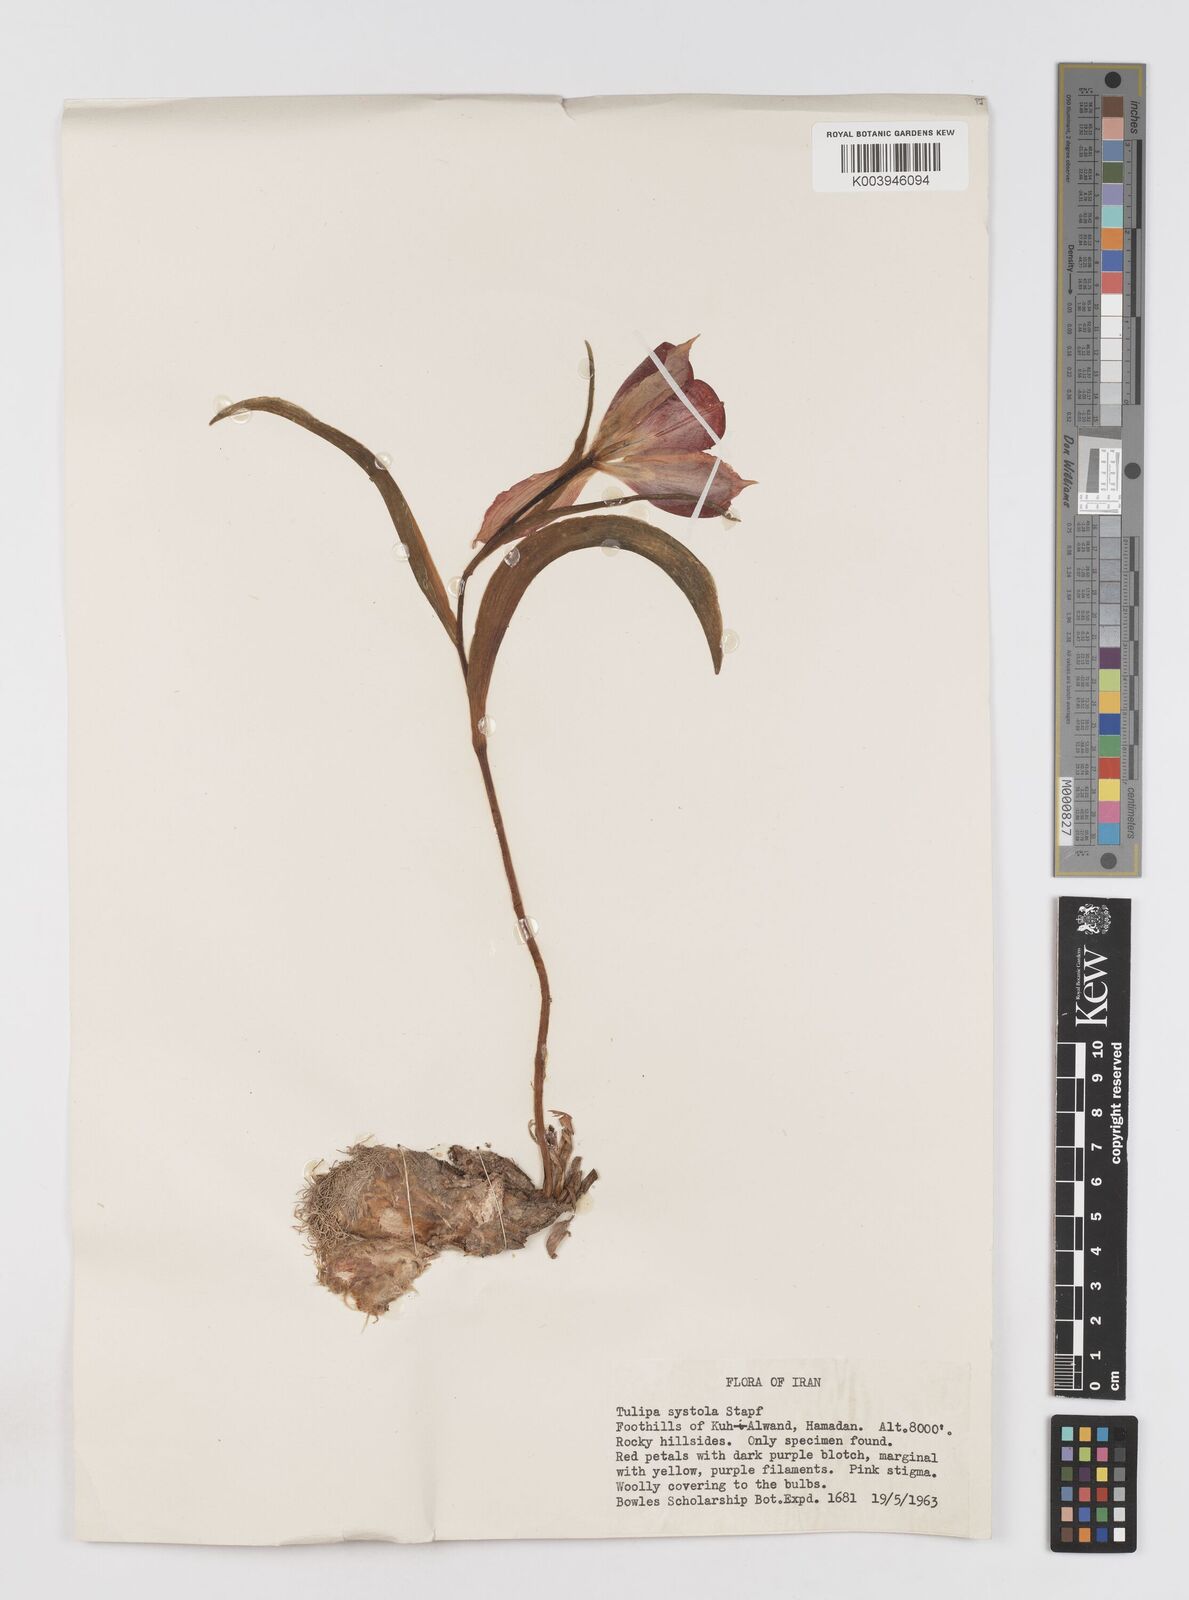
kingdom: Plantae
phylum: Tracheophyta
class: Liliopsida
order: Liliales
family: Liliaceae
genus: Tulipa
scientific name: Tulipa systola
